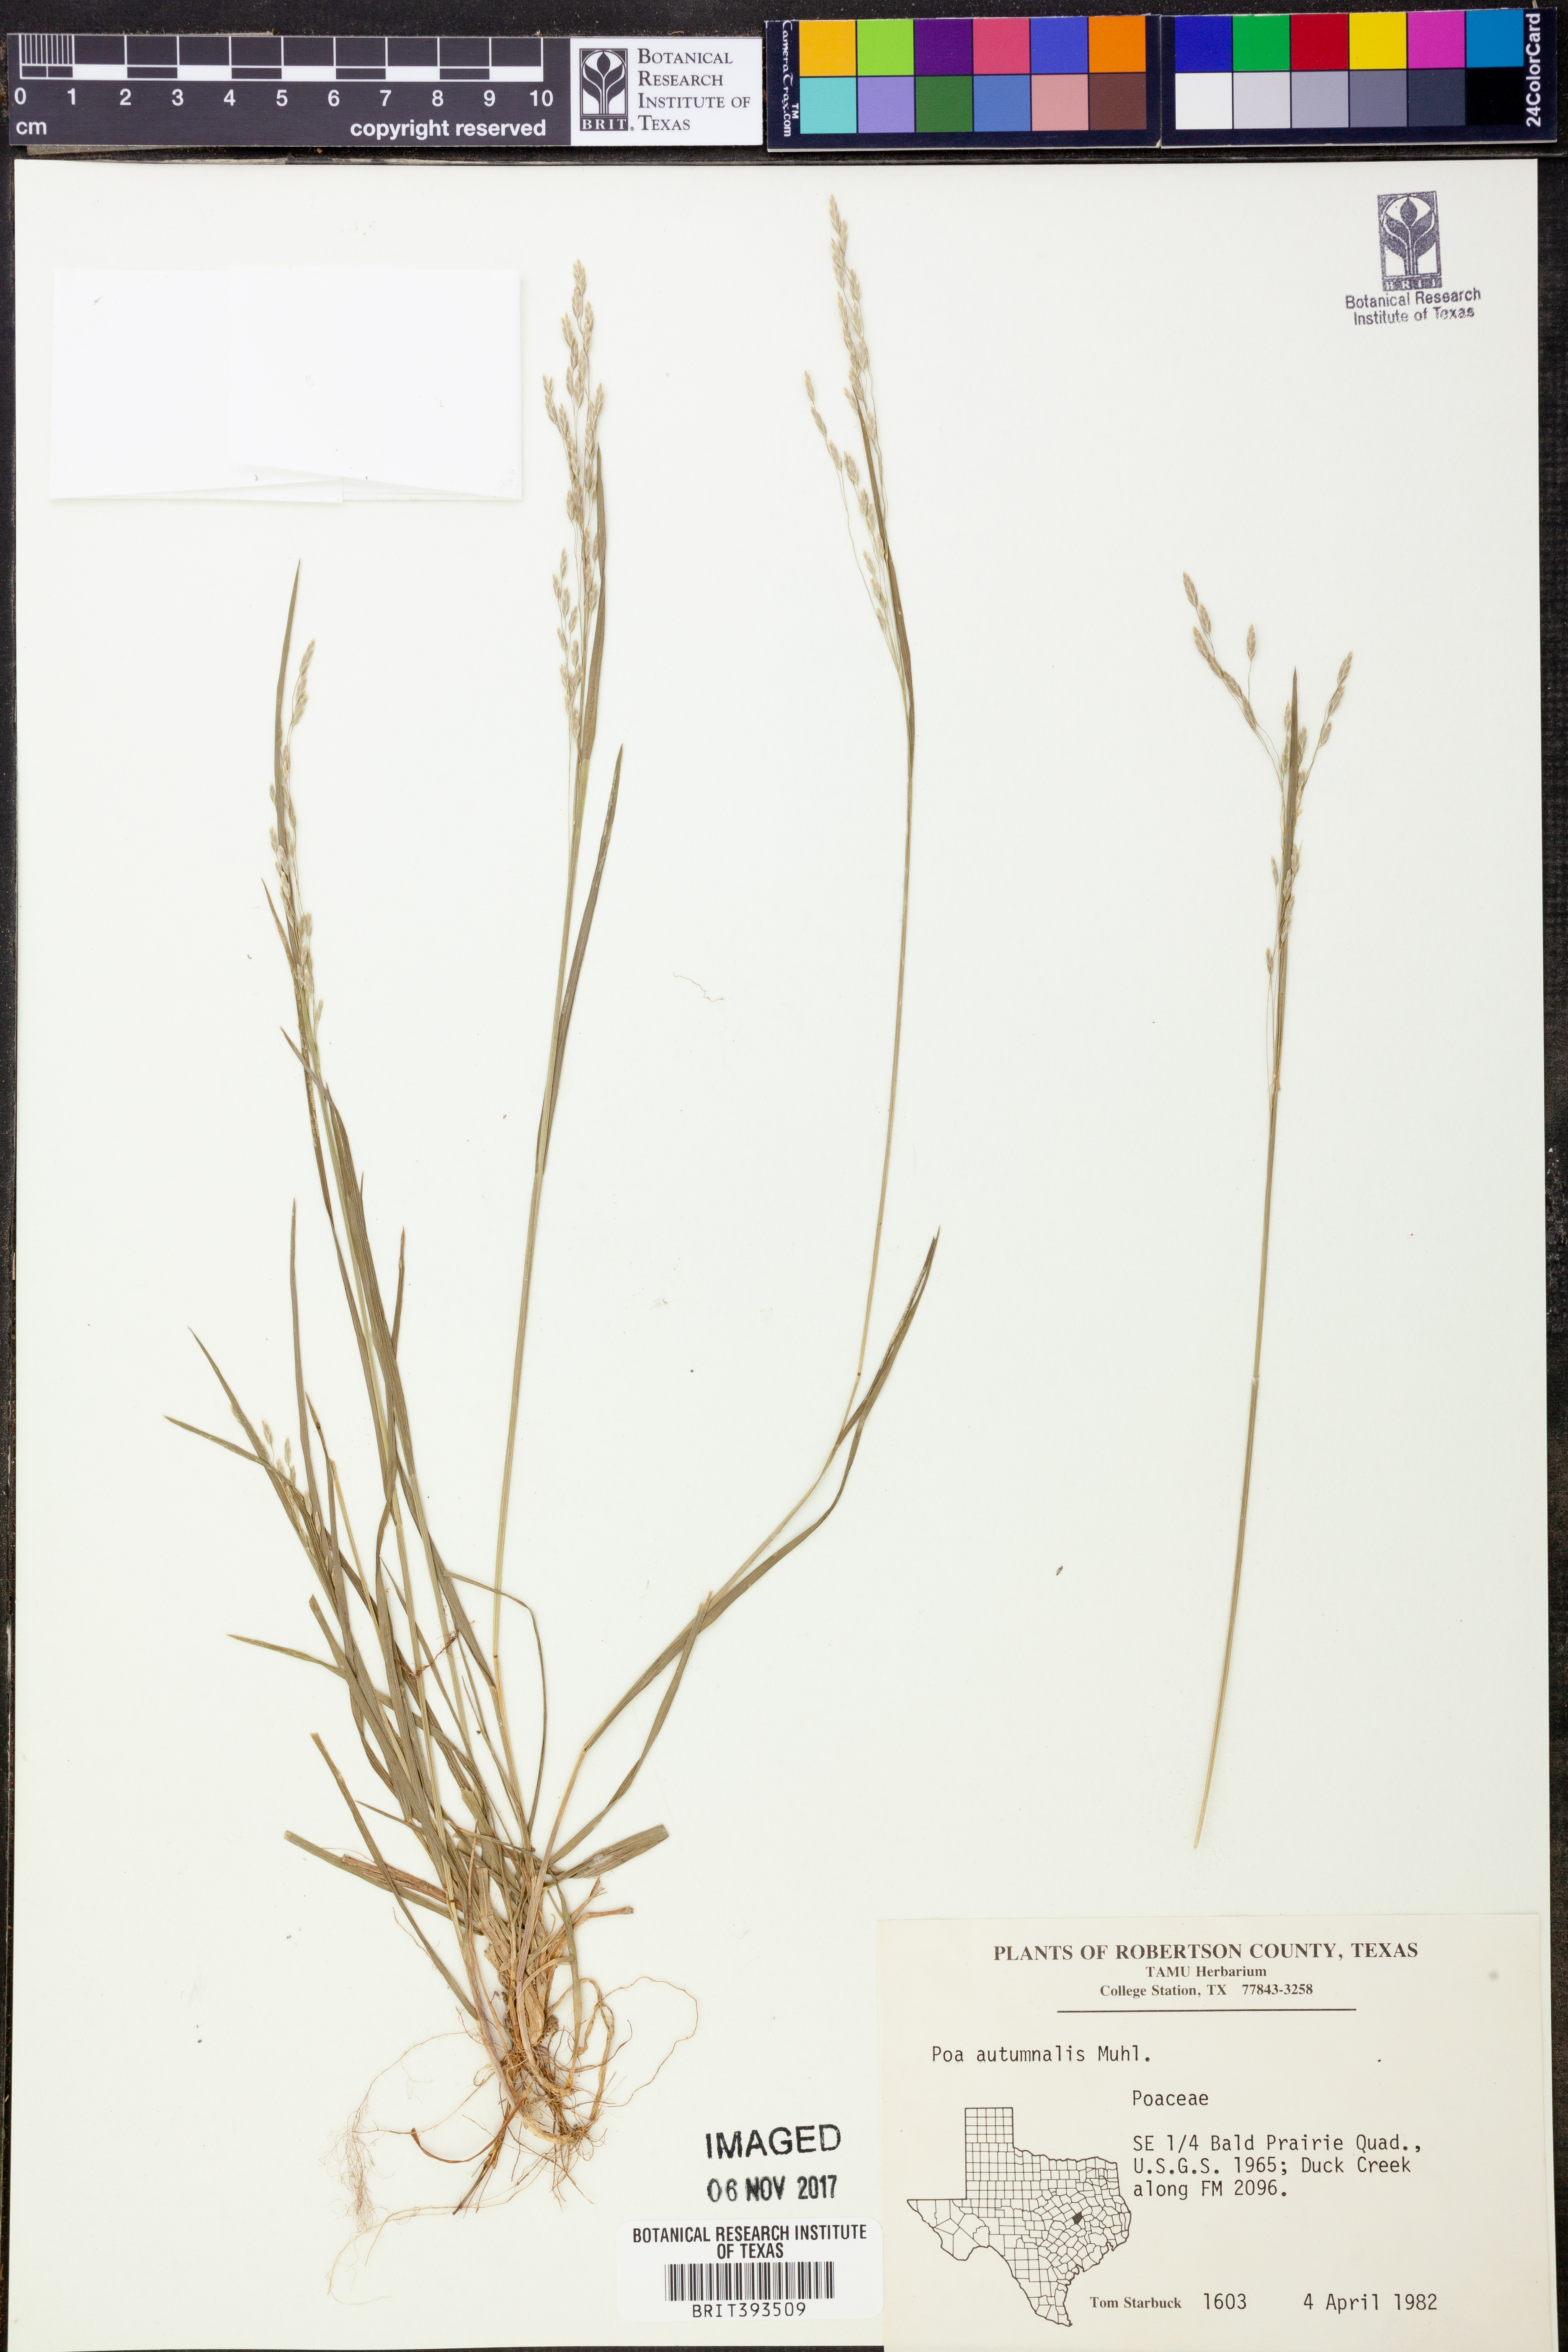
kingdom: Plantae
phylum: Tracheophyta
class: Liliopsida
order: Poales
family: Poaceae
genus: Poa
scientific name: Poa autumnalis
